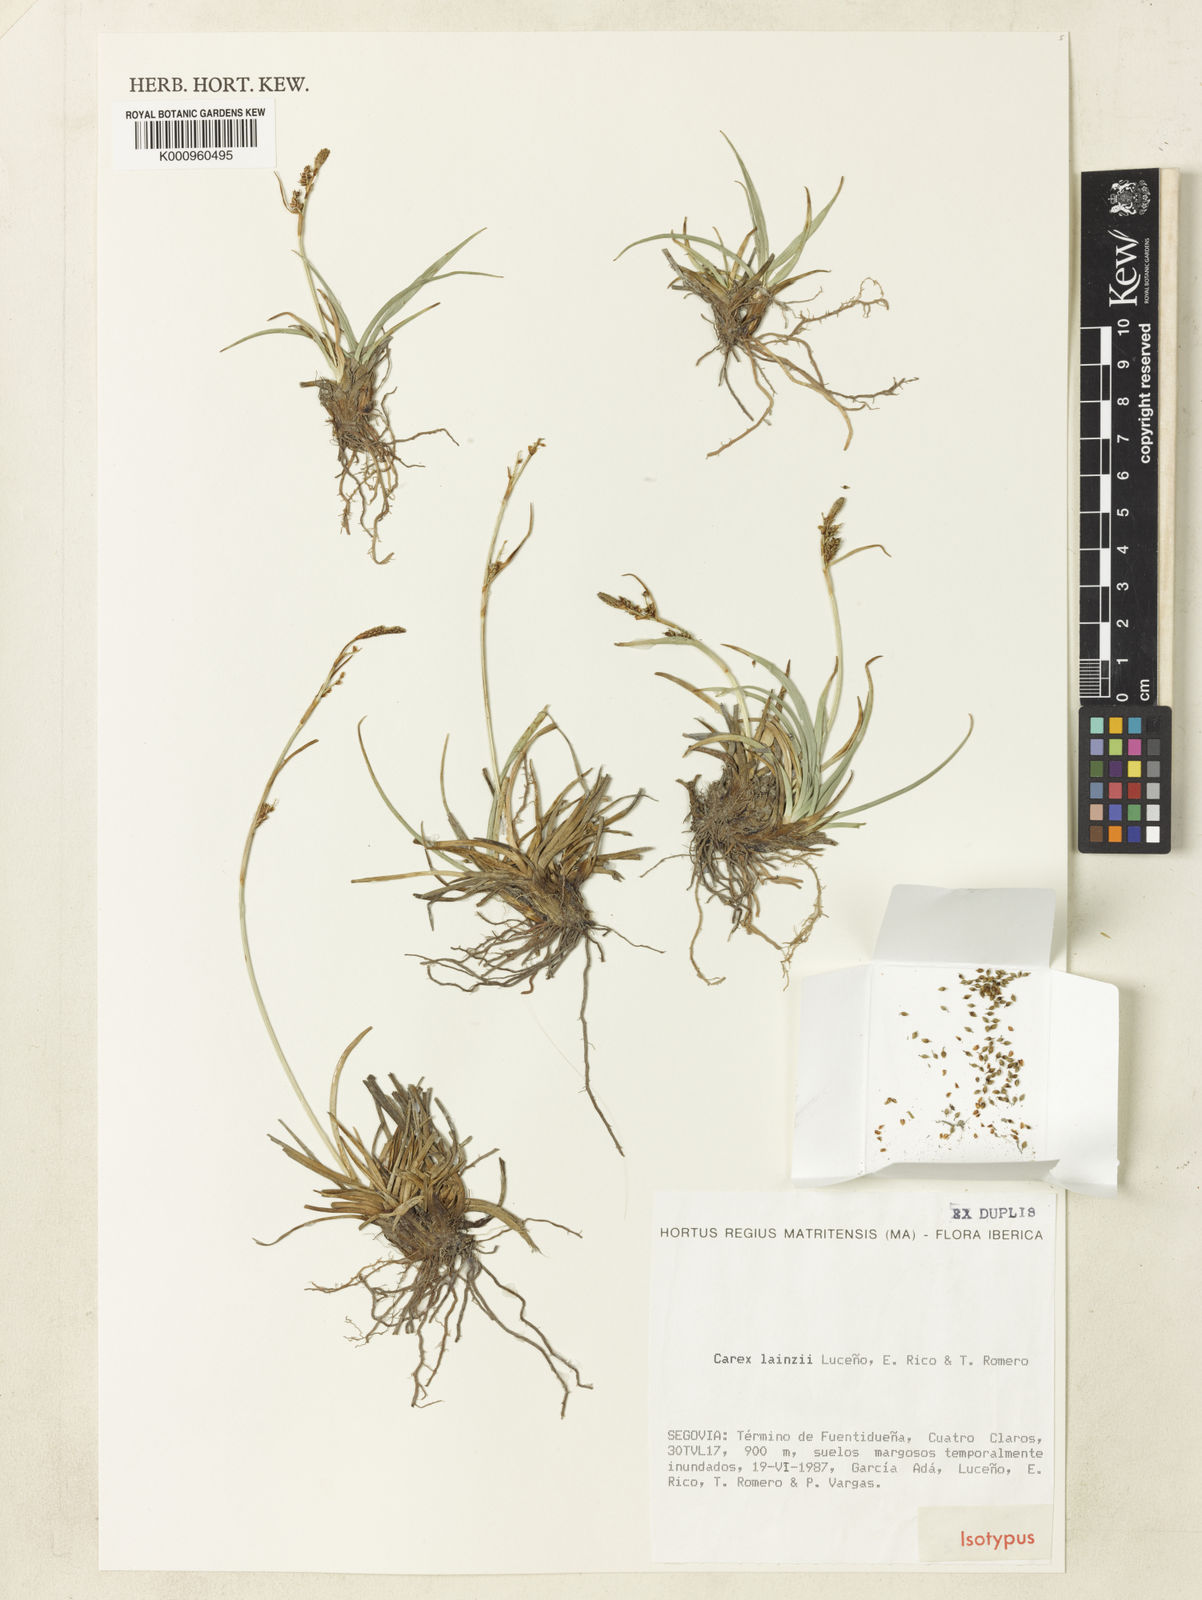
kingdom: Plantae
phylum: Tracheophyta
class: Liliopsida
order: Poales
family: Cyperaceae
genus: Carex
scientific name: Carex
